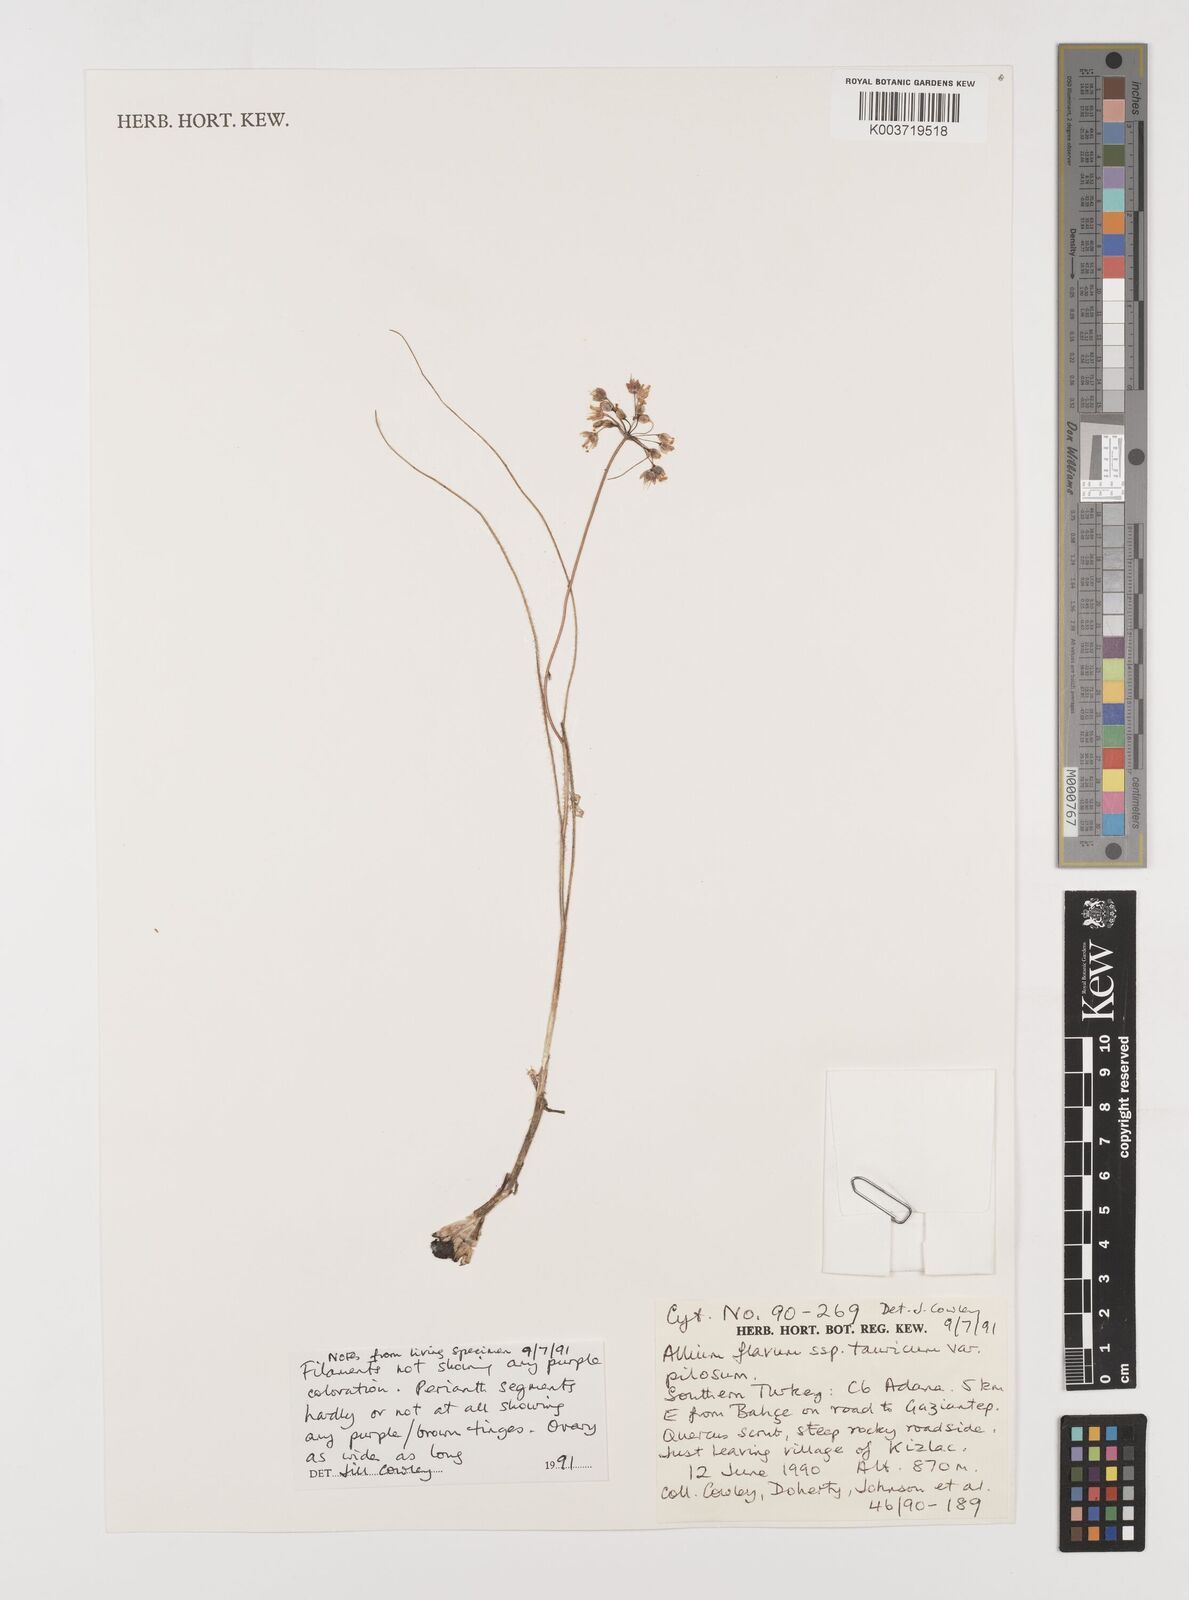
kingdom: Plantae
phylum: Tracheophyta
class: Liliopsida
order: Asparagales
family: Amaryllidaceae
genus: Allium
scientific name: Allium flavum
